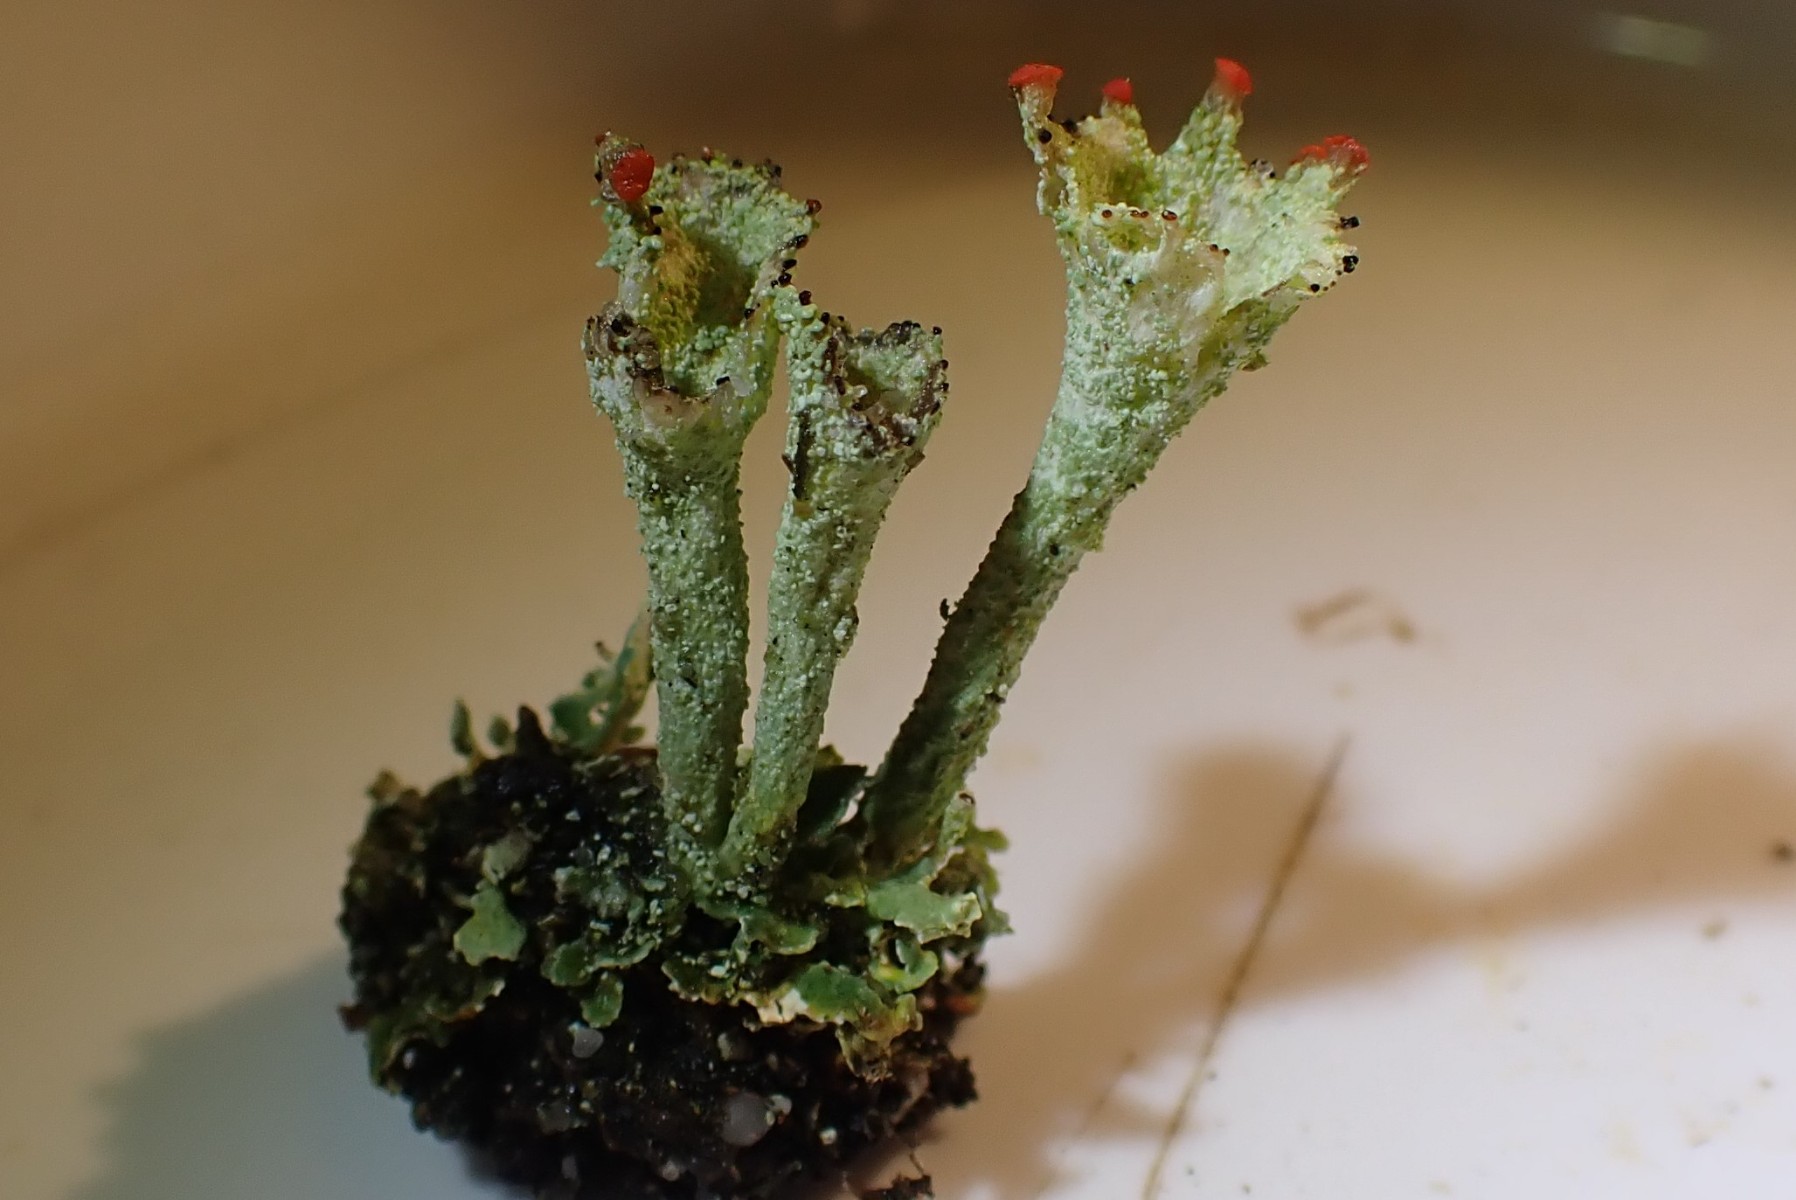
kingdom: Fungi
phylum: Ascomycota
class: Lecanoromycetes
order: Lecanorales
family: Cladoniaceae
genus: Cladonia
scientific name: Cladonia diversa
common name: rød bægerlav
